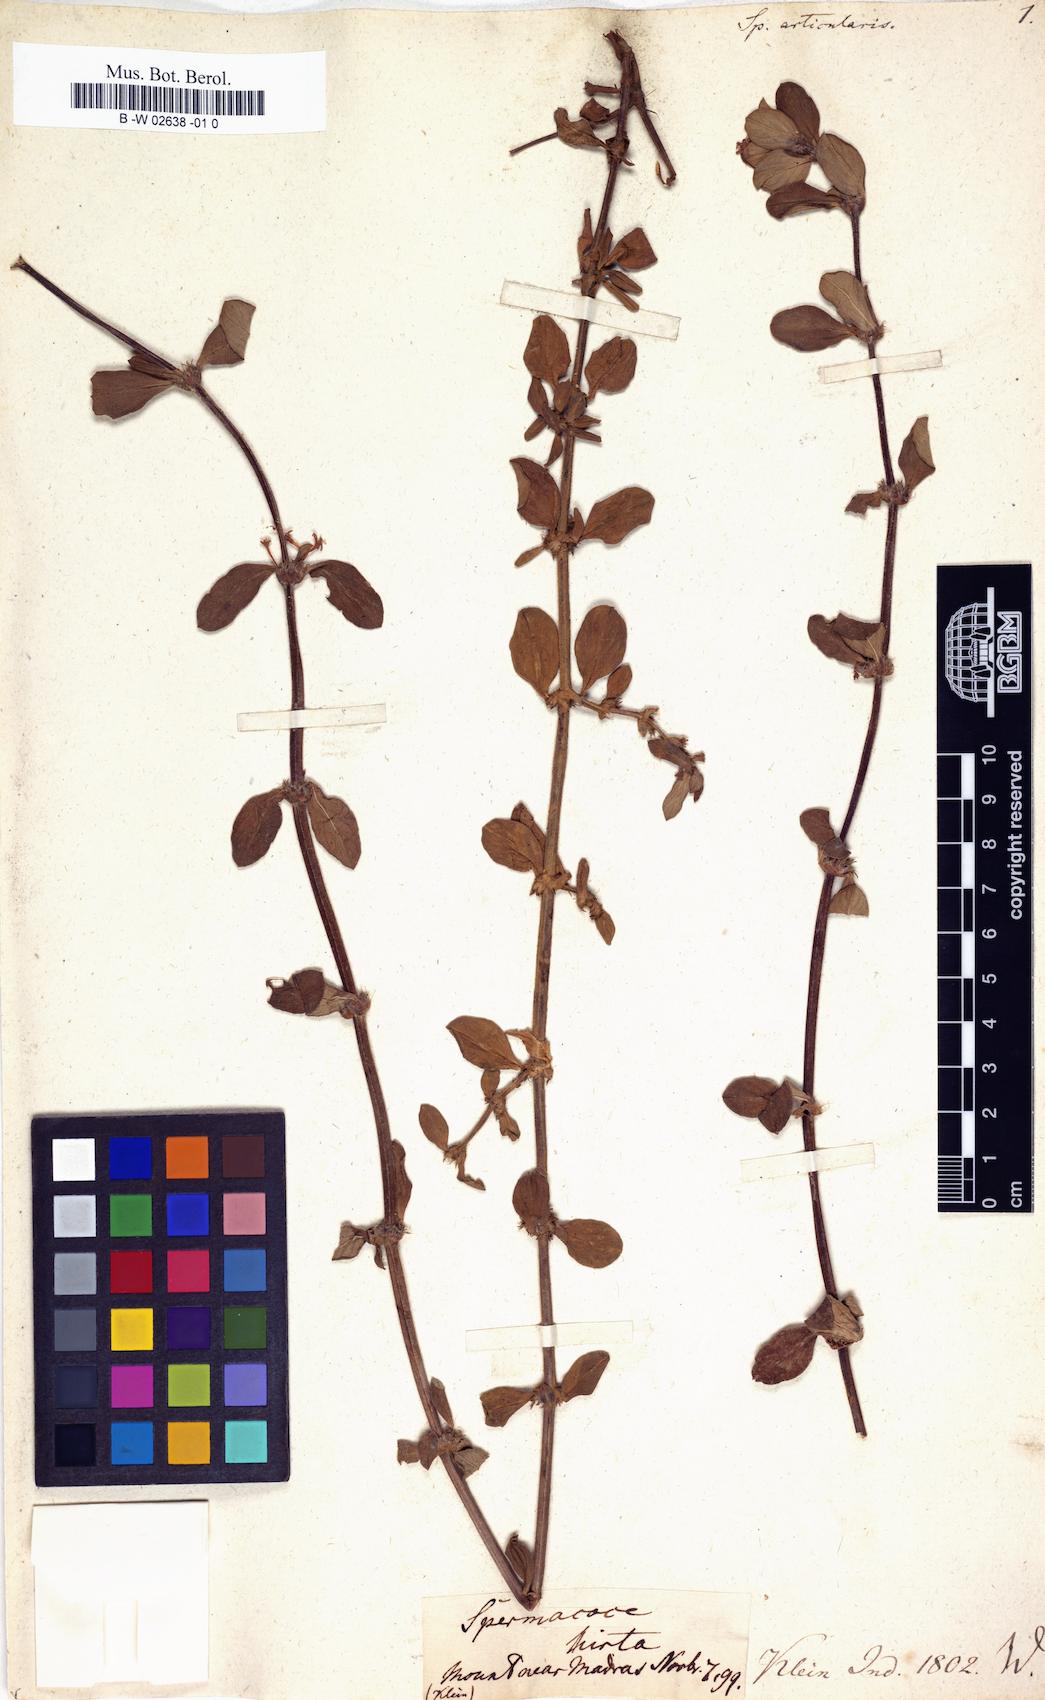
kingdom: Plantae
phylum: Tracheophyta
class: Magnoliopsida
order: Gentianales
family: Rubiaceae
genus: Spermacoce
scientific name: Spermacoce articularis
